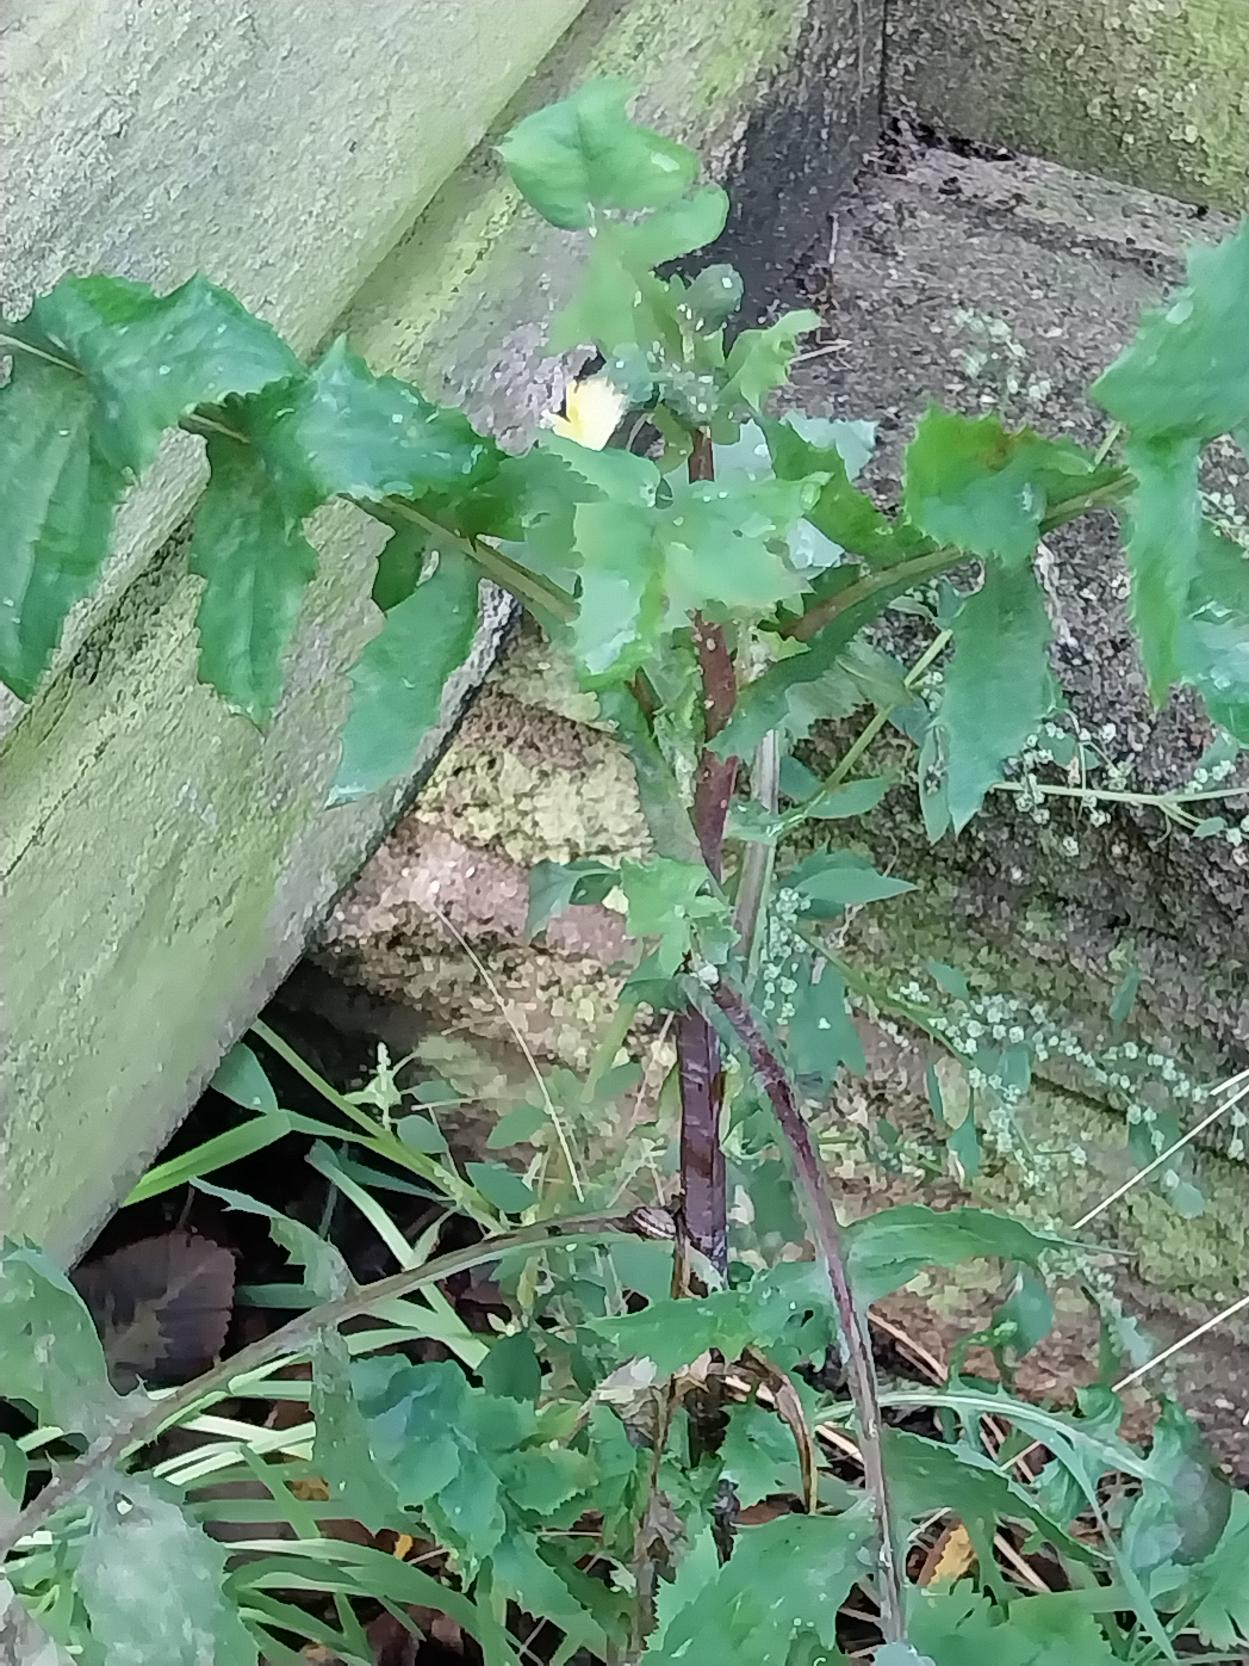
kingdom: Plantae
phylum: Tracheophyta
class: Magnoliopsida
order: Asterales
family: Asteraceae
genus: Sonchus
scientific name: Sonchus oleraceus
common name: Almindelig svinemælk
